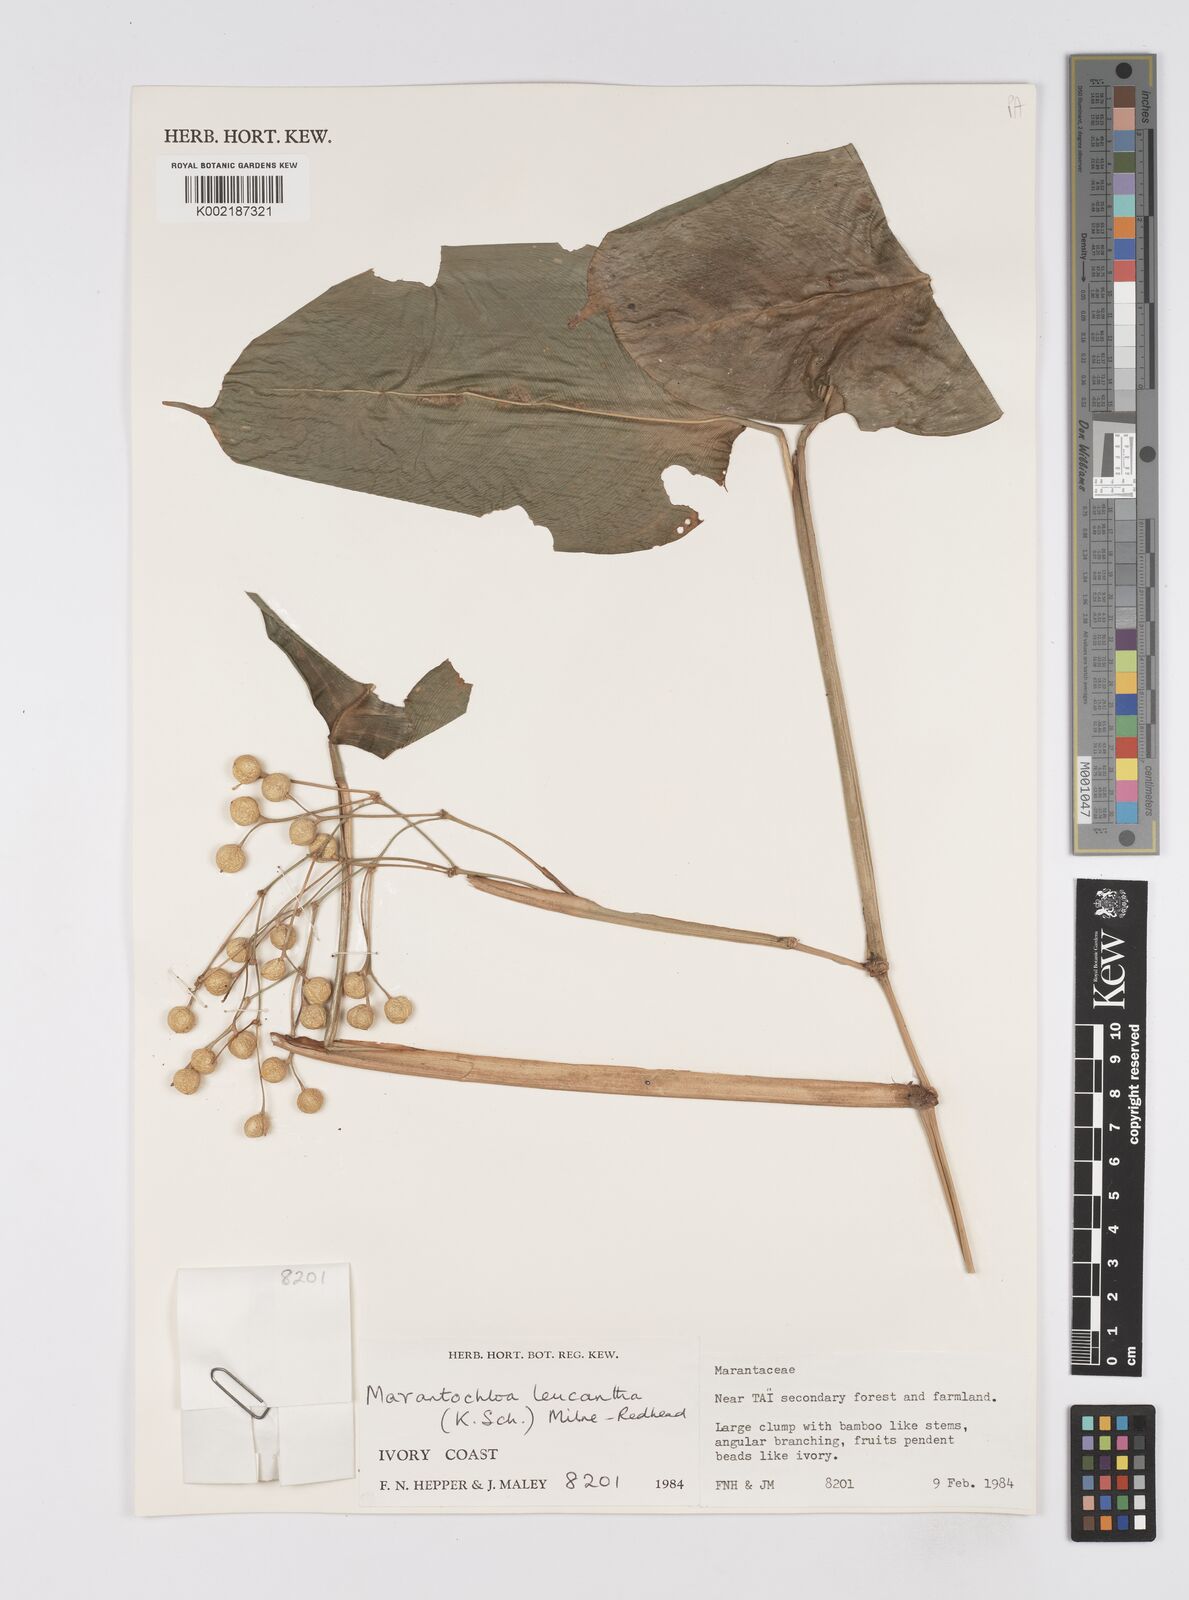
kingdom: Plantae
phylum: Tracheophyta
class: Liliopsida
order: Zingiberales
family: Marantaceae
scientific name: Marantaceae
